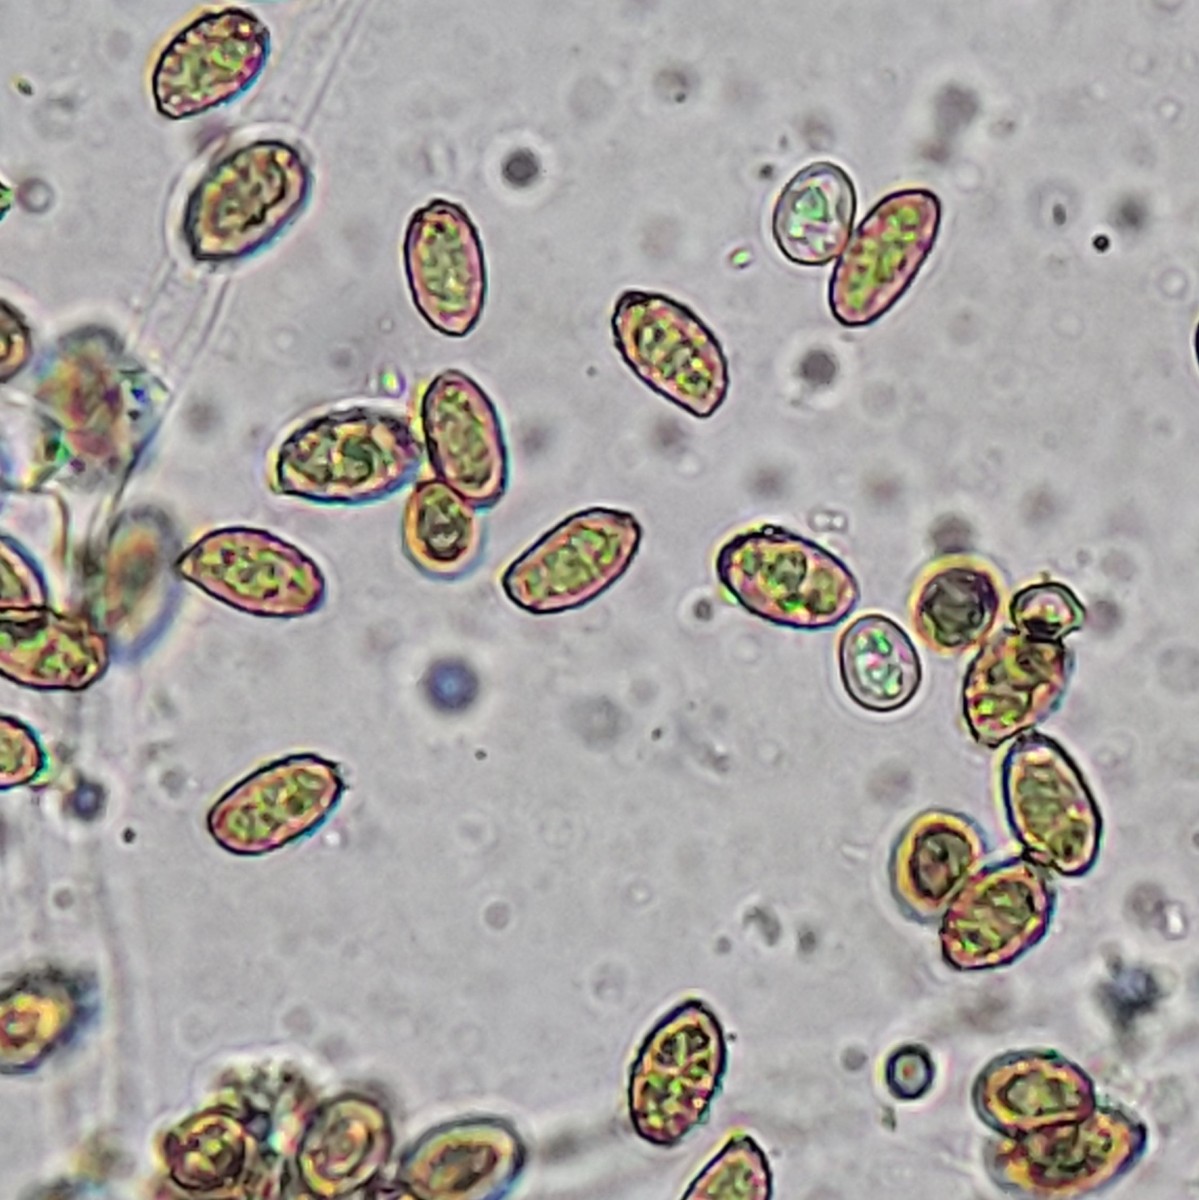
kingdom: Fungi
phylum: Basidiomycota
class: Agaricomycetes
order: Agaricales
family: Cortinariaceae
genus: Cortinarius
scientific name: Cortinarius incisior
